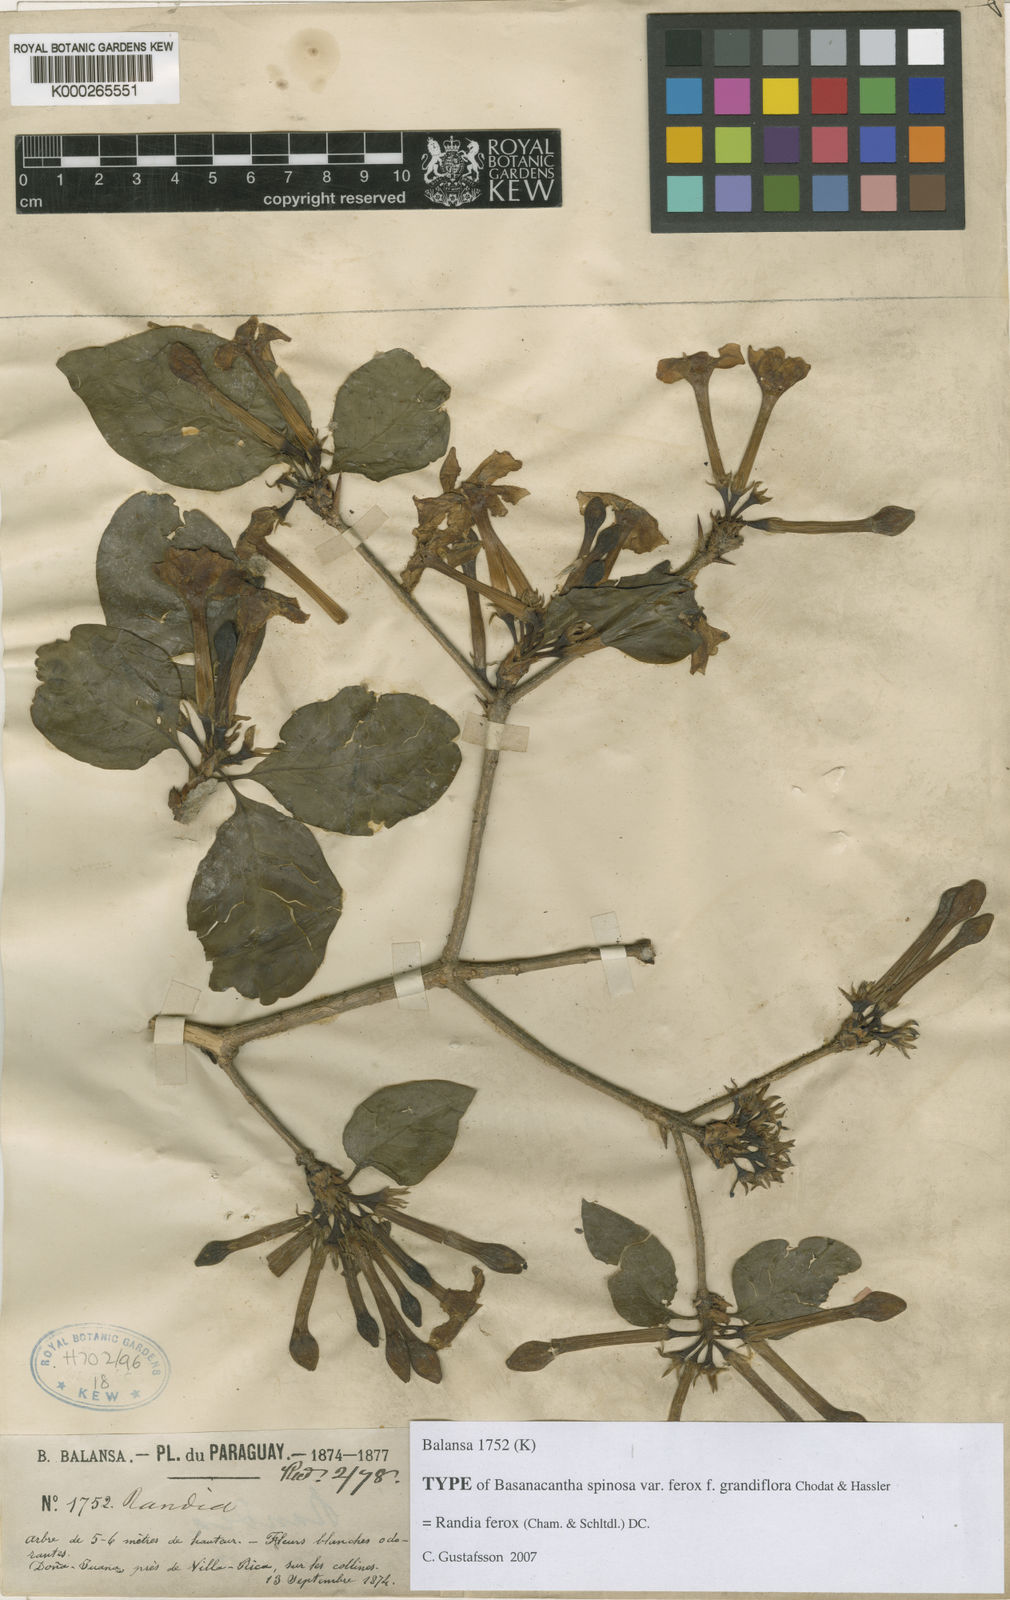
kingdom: Plantae
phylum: Tracheophyta
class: Magnoliopsida
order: Gentianales
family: Rubiaceae
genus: Randia
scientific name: Randia
